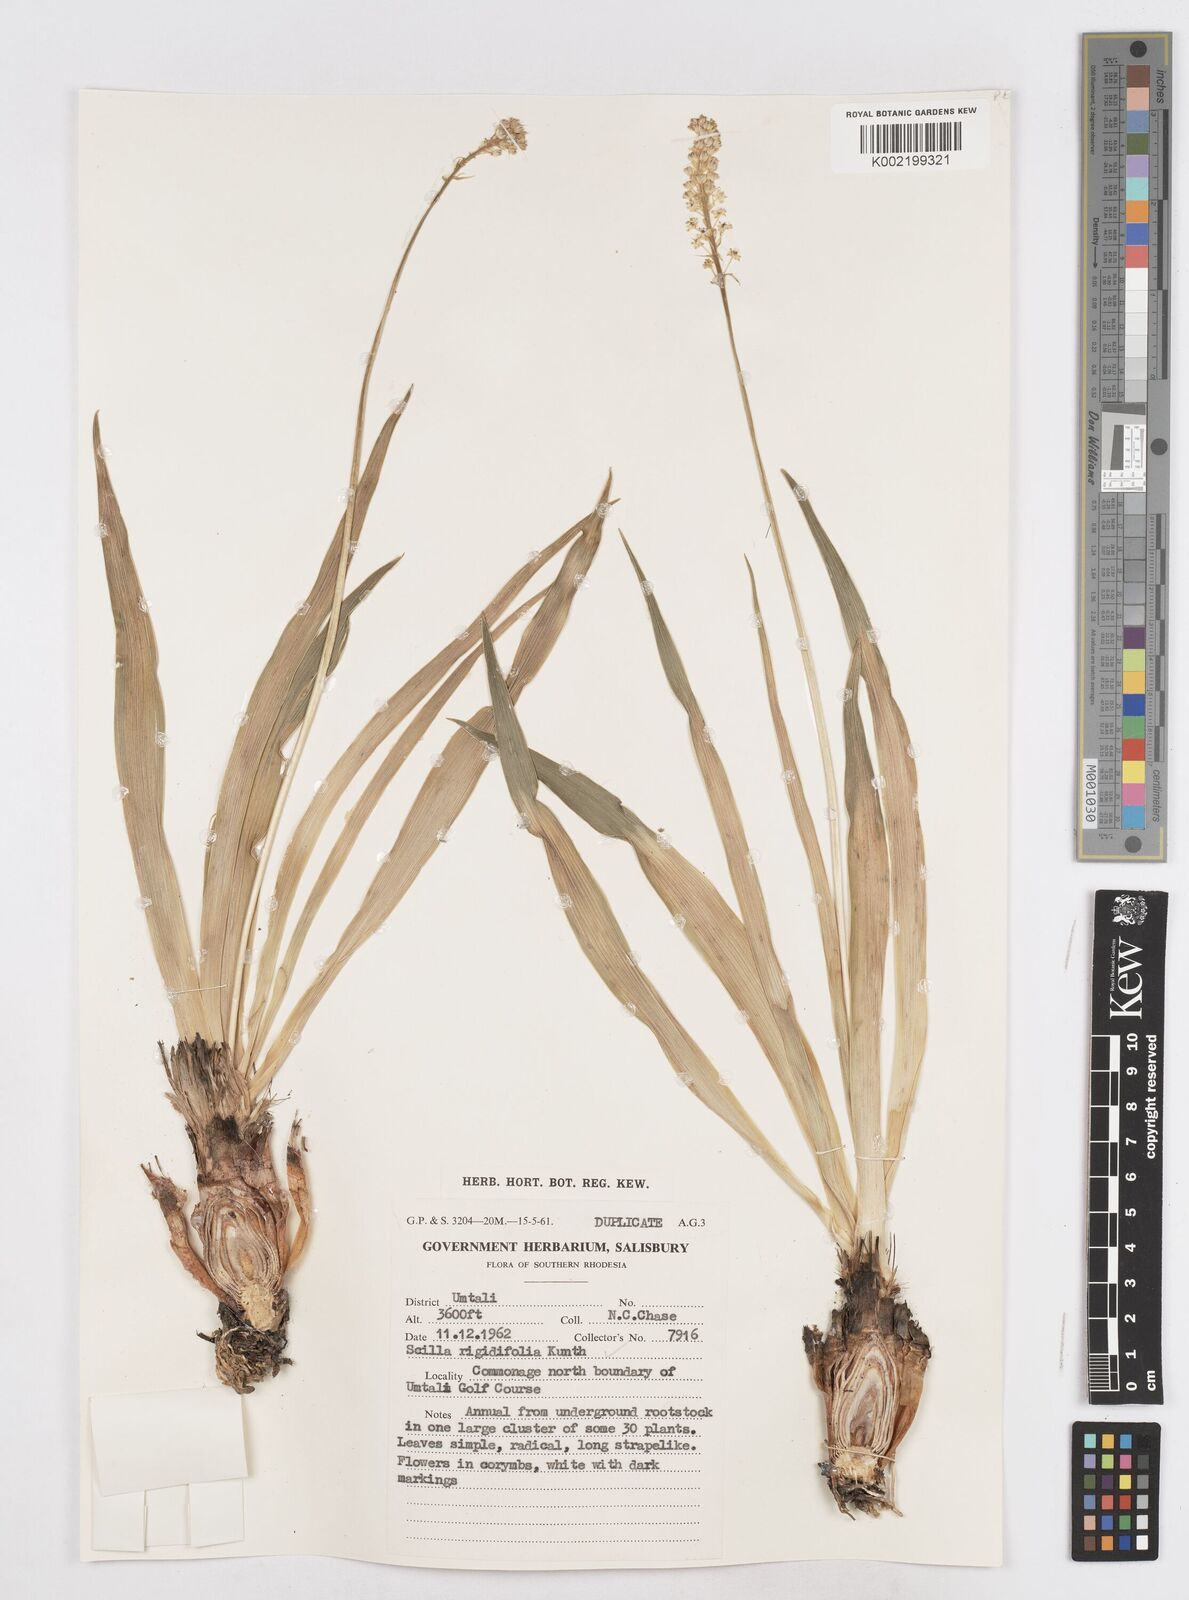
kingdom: Plantae
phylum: Tracheophyta
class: Liliopsida
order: Asparagales
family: Asparagaceae
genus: Schizocarphus
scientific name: Schizocarphus nervosus
